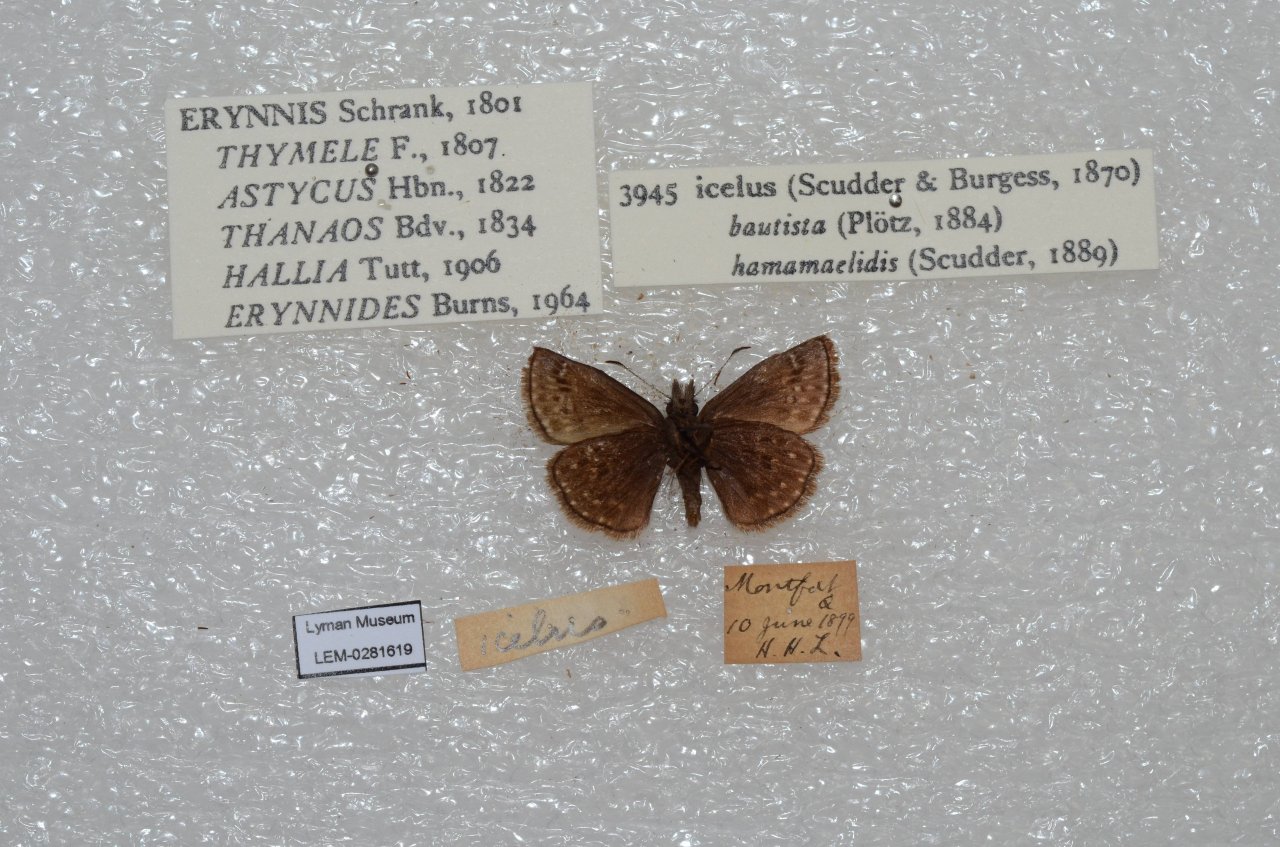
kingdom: Animalia
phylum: Arthropoda
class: Insecta
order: Lepidoptera
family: Hesperiidae
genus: Erynnis
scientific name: Erynnis icelus
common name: Dreamy Duskywing
